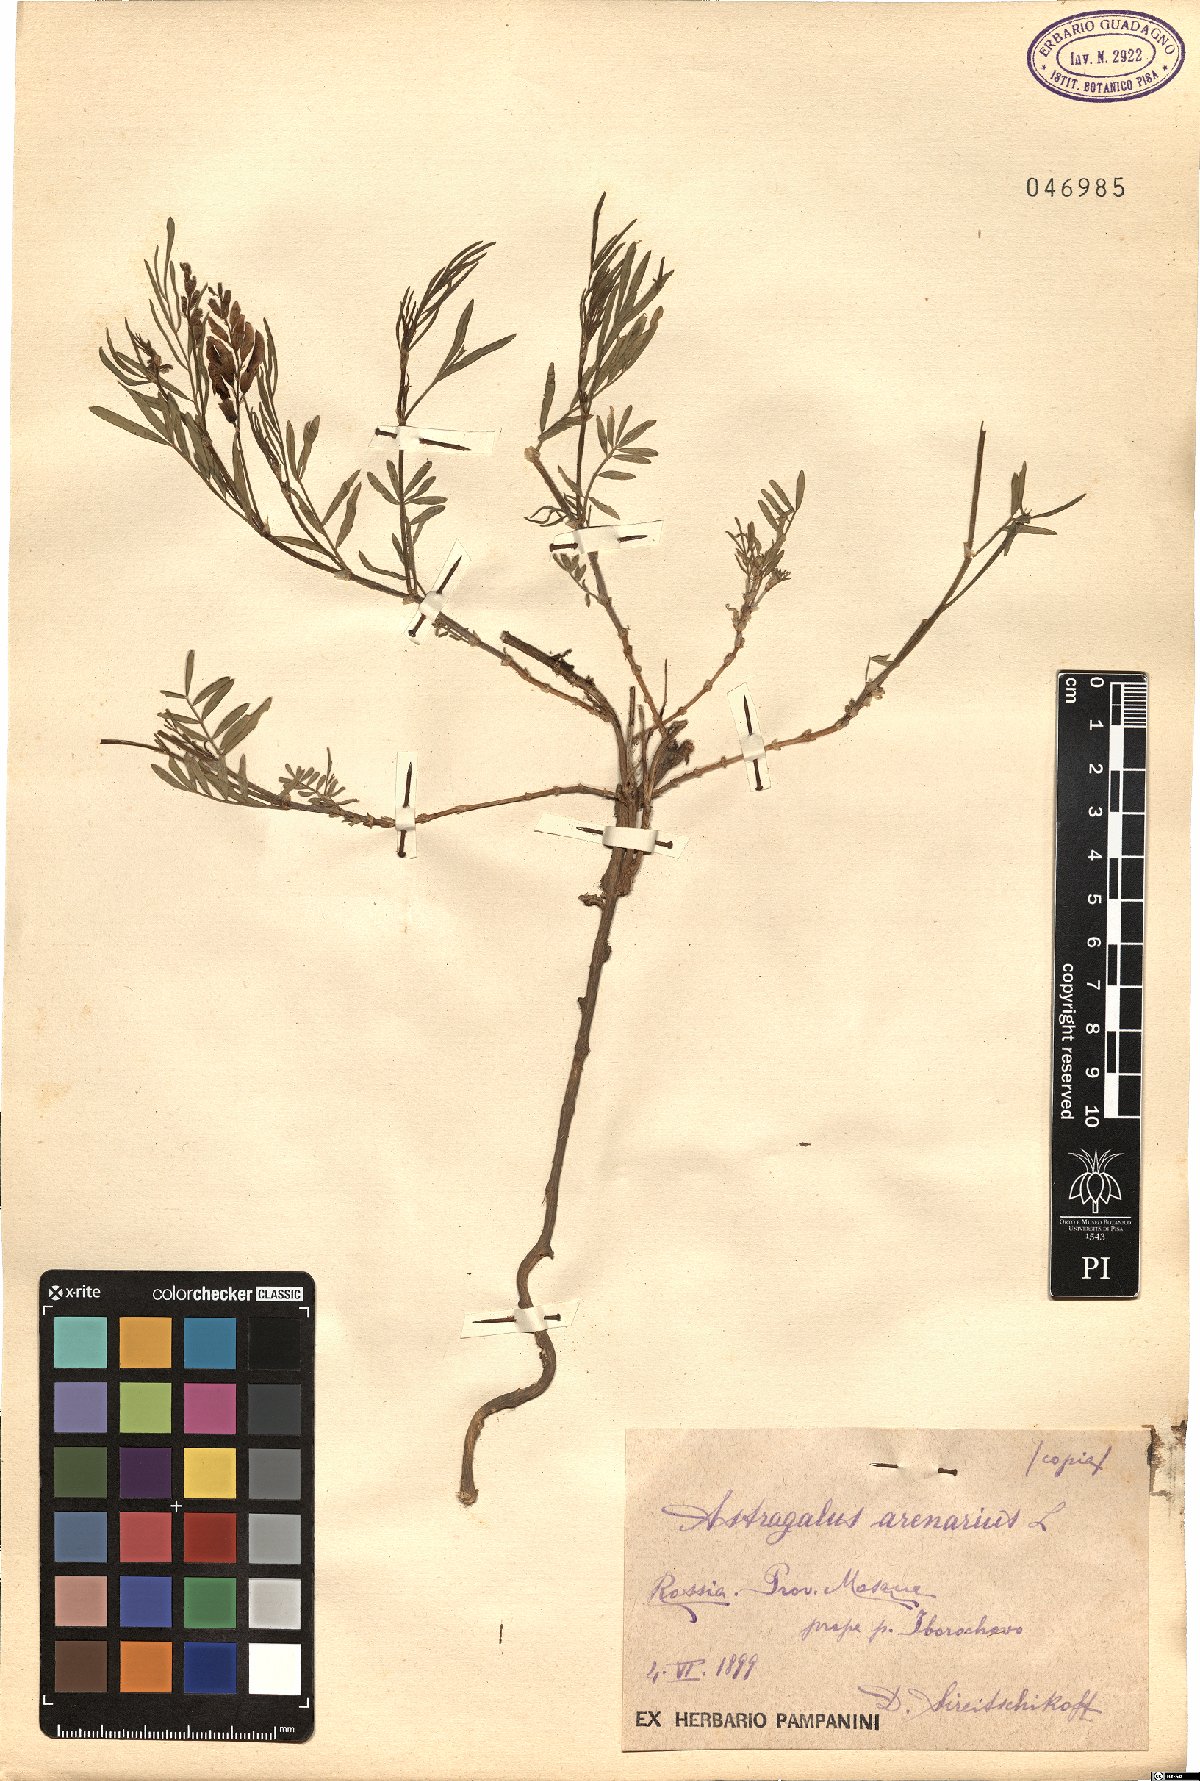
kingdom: Plantae
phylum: Tracheophyta
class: Magnoliopsida
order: Fabales
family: Fabaceae
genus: Astragalus
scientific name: Astragalus arenarius
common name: Arenarious milk-vetch
